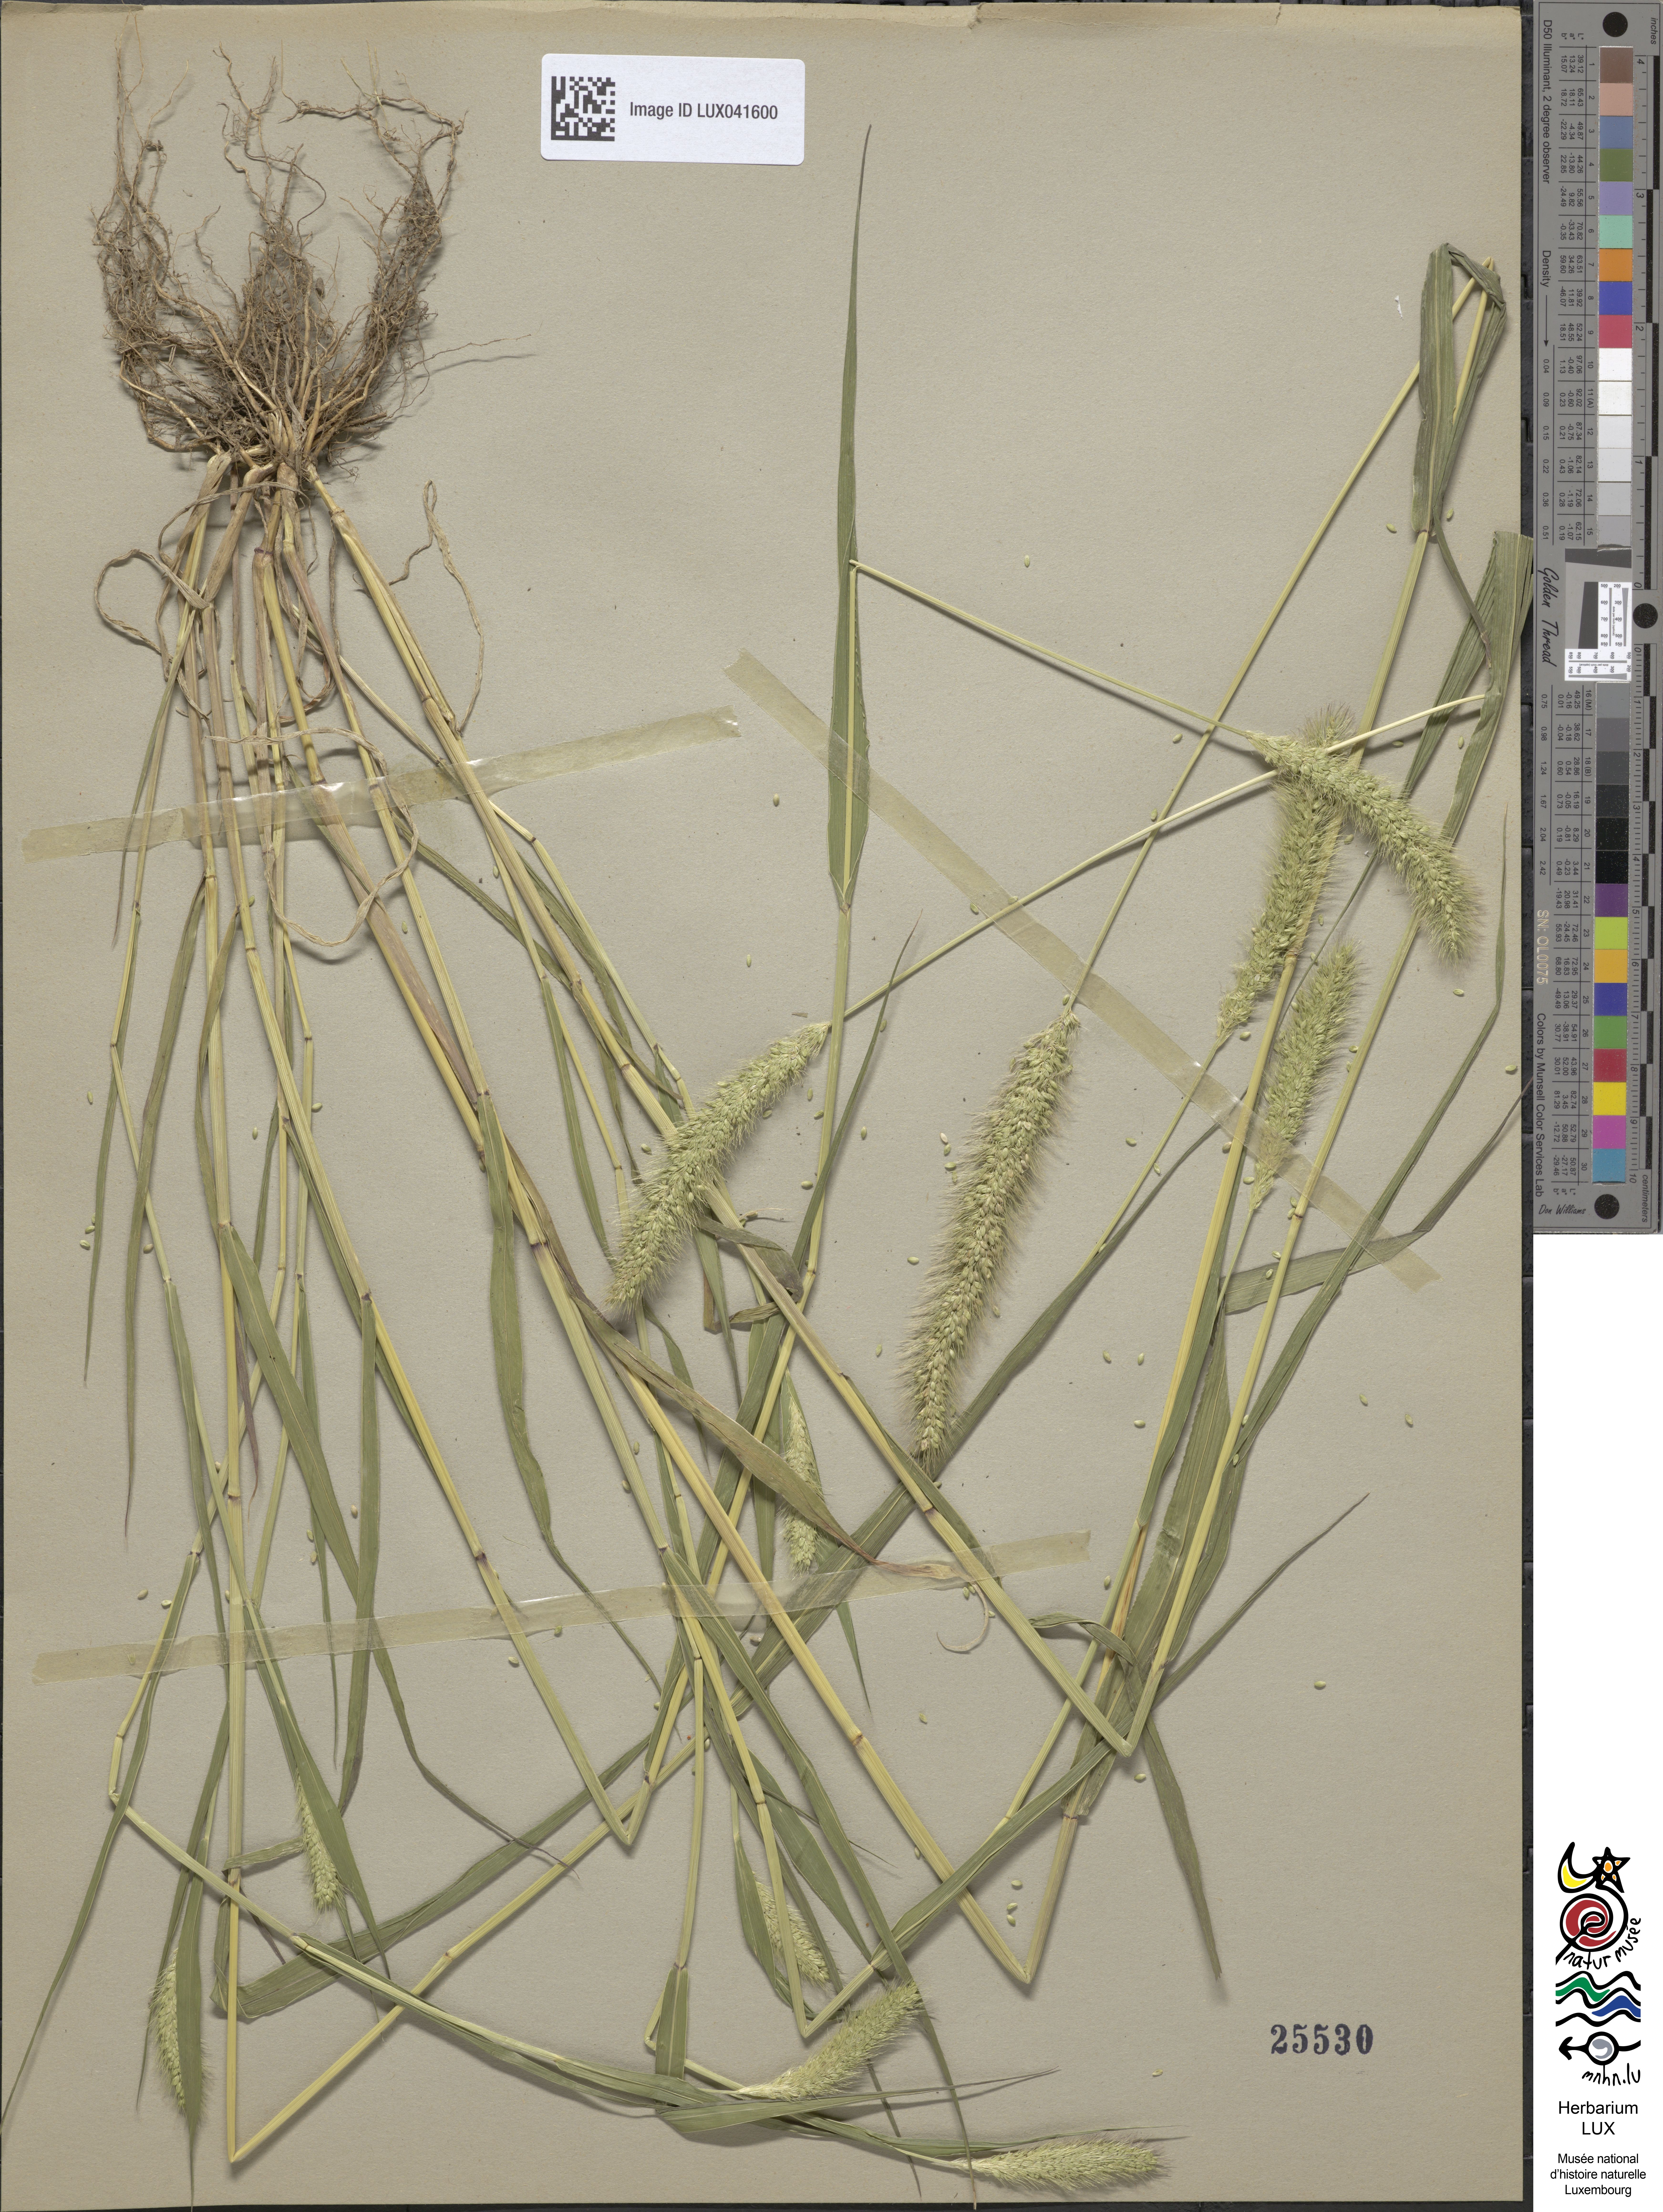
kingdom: Plantae
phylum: Tracheophyta
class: Liliopsida
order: Poales
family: Poaceae
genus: Setaria
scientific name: Setaria viridis
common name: Green bristlegrass
